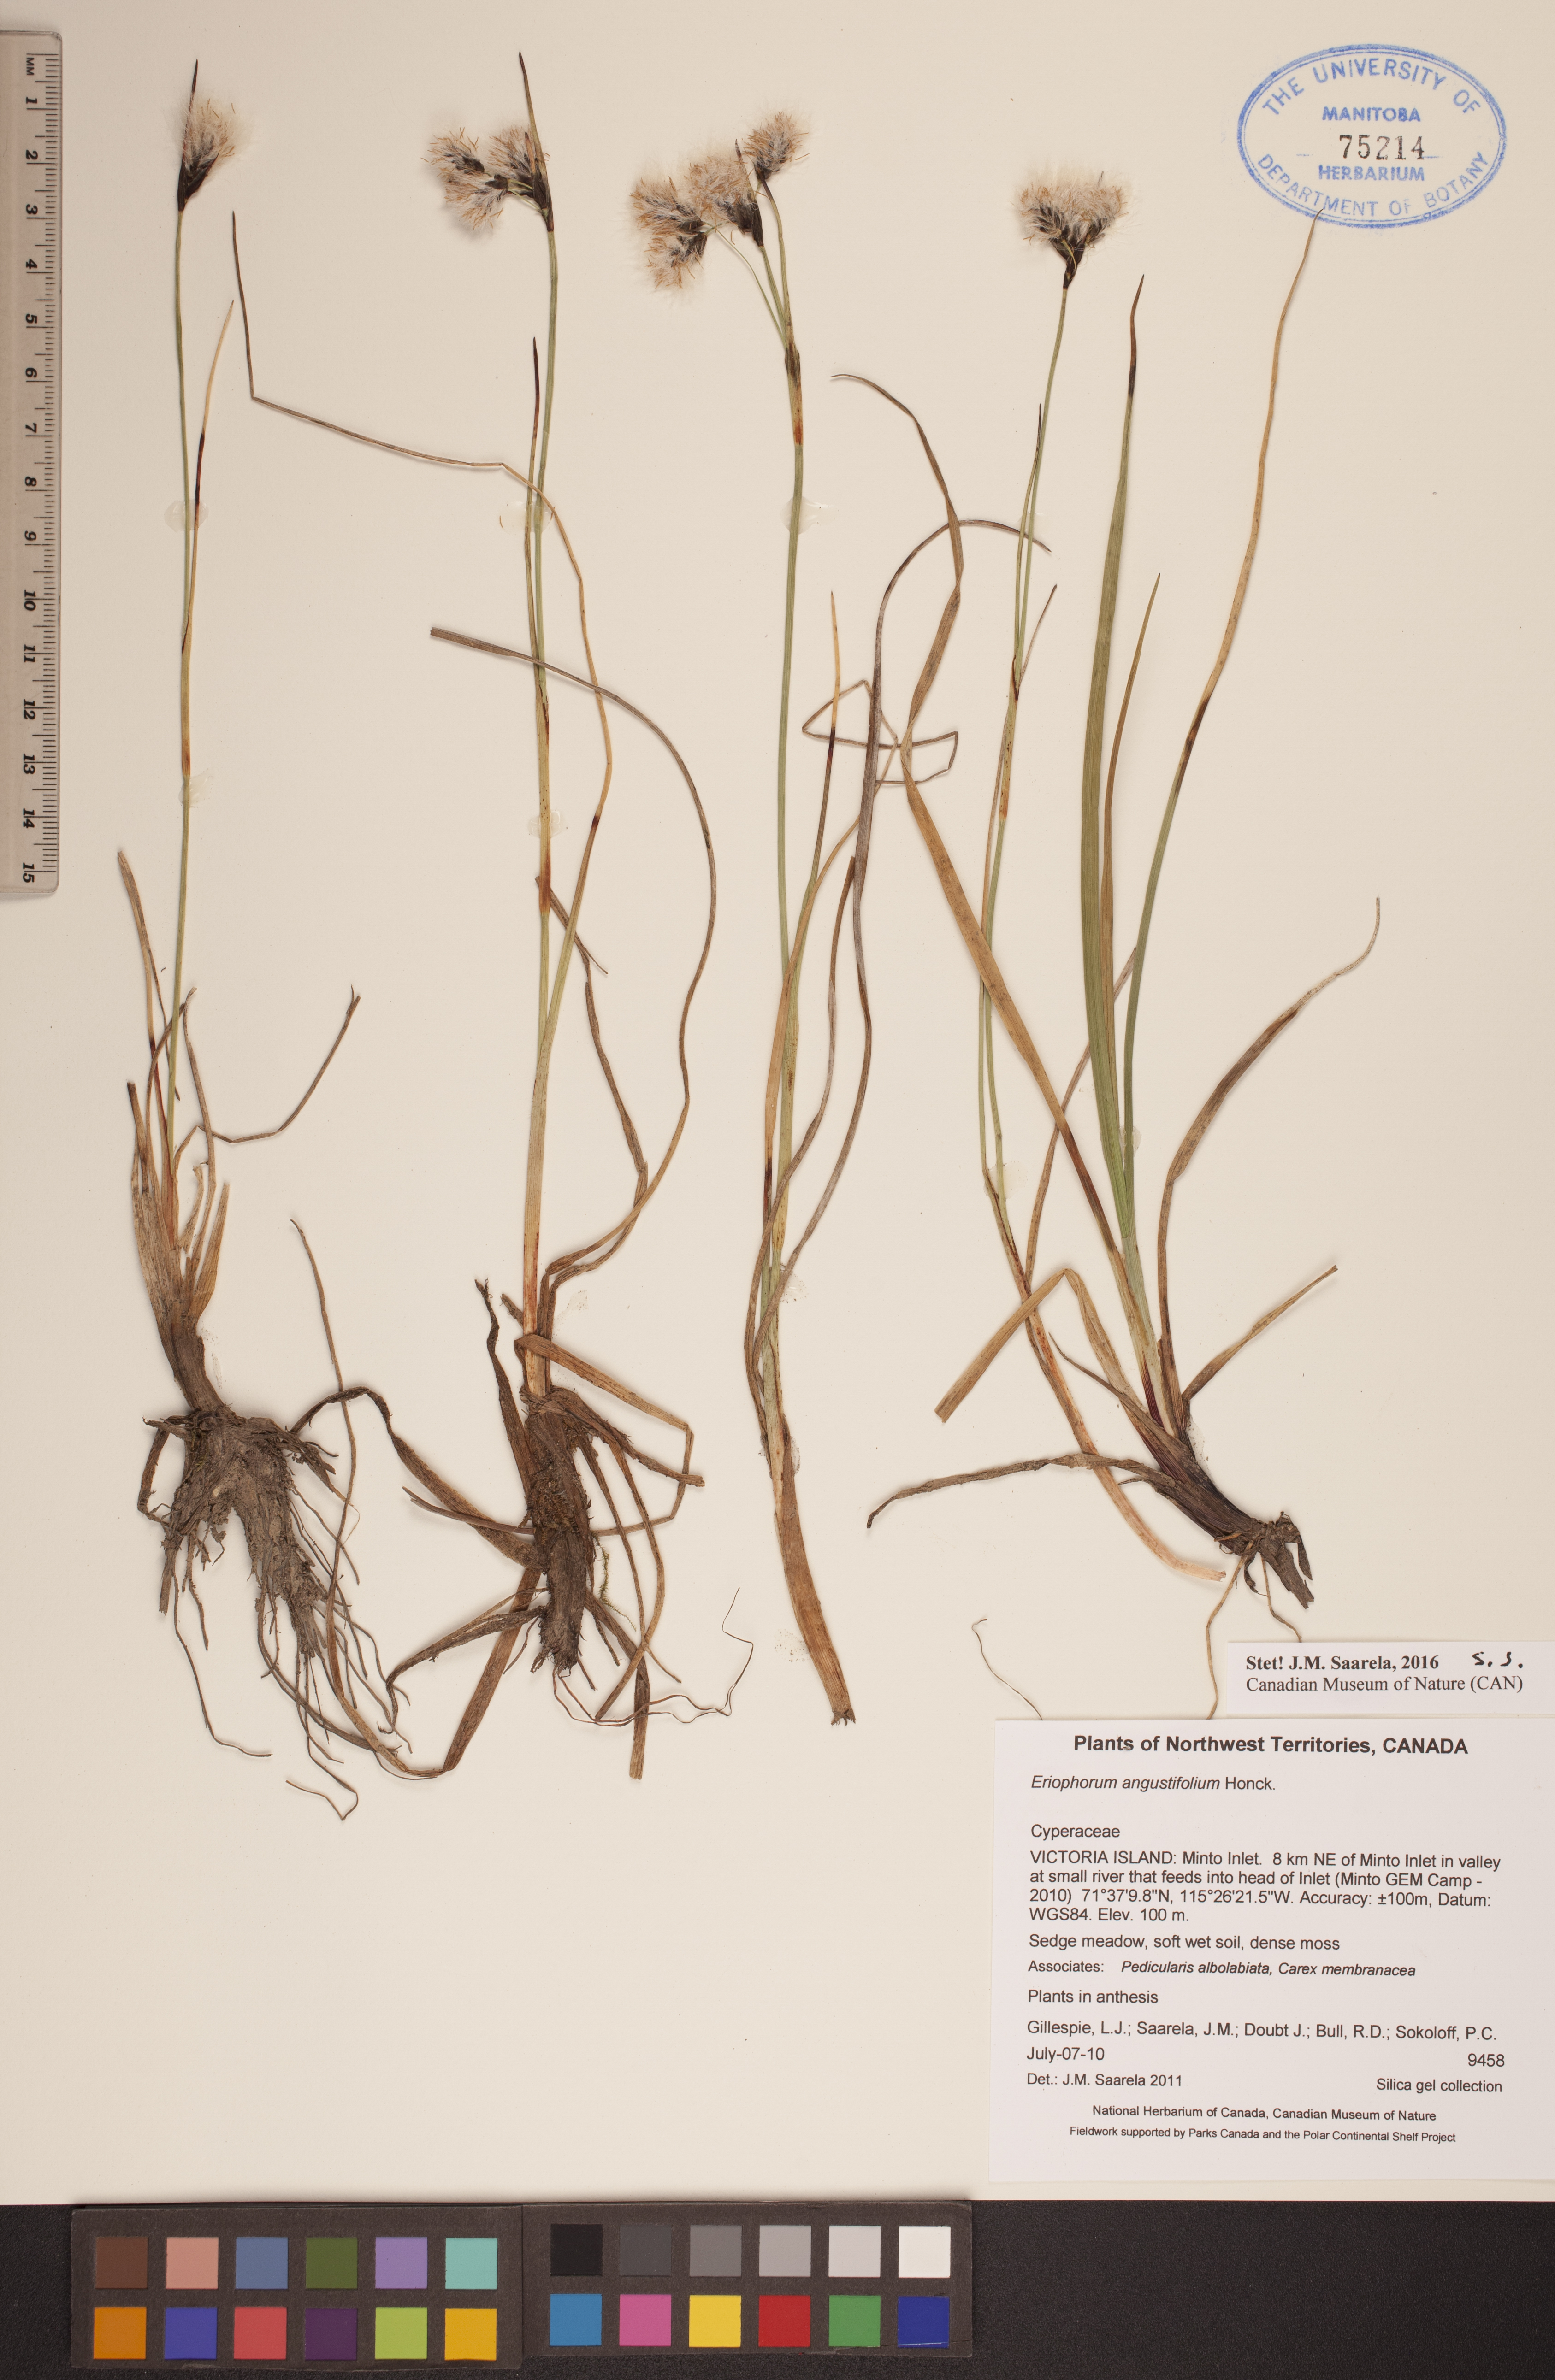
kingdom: Plantae
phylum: Tracheophyta
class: Liliopsida
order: Poales
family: Cyperaceae
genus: Eriophorum
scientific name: Eriophorum angustifolium
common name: Common cottongrass
